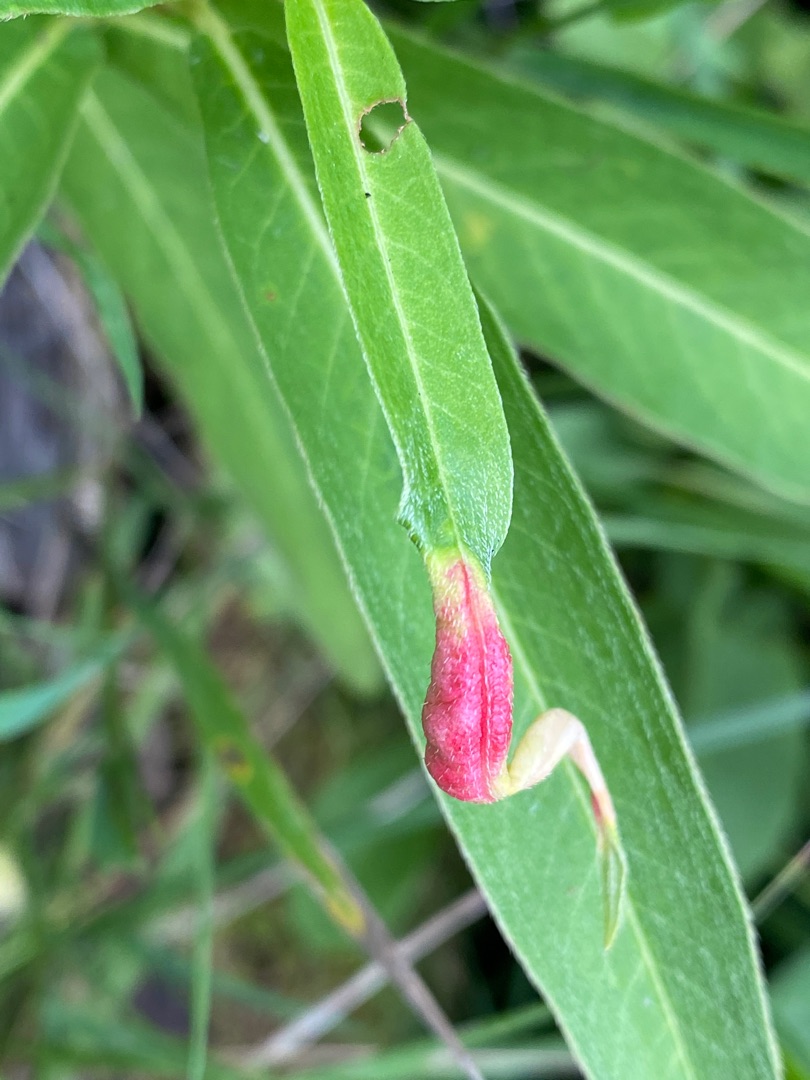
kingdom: Animalia
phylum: Arthropoda
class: Insecta
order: Diptera
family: Cecidomyiidae
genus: Wachtliella
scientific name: Wachtliella persicariae
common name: Pileurtgalmyg
